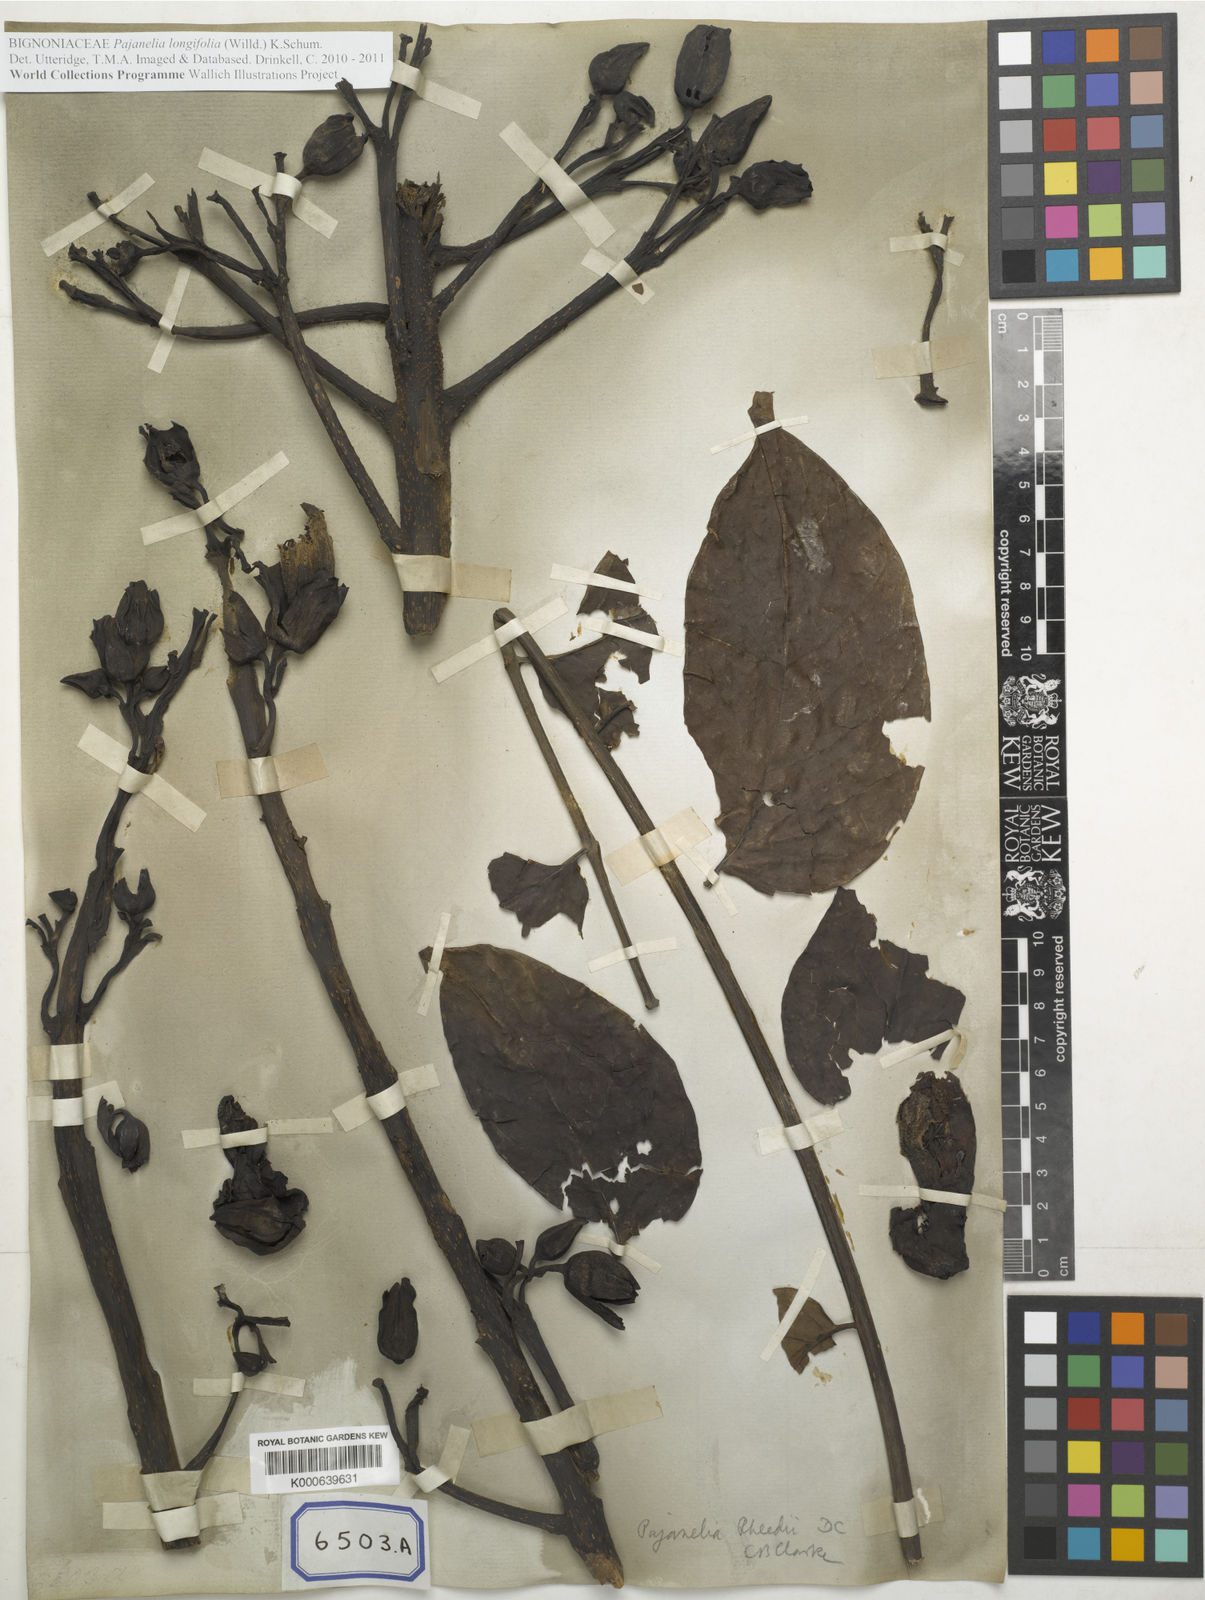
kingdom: Plantae
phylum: Tracheophyta
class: Magnoliopsida
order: Lamiales
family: Bignoniaceae
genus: Pajanelia
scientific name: Pajanelia longifolia
